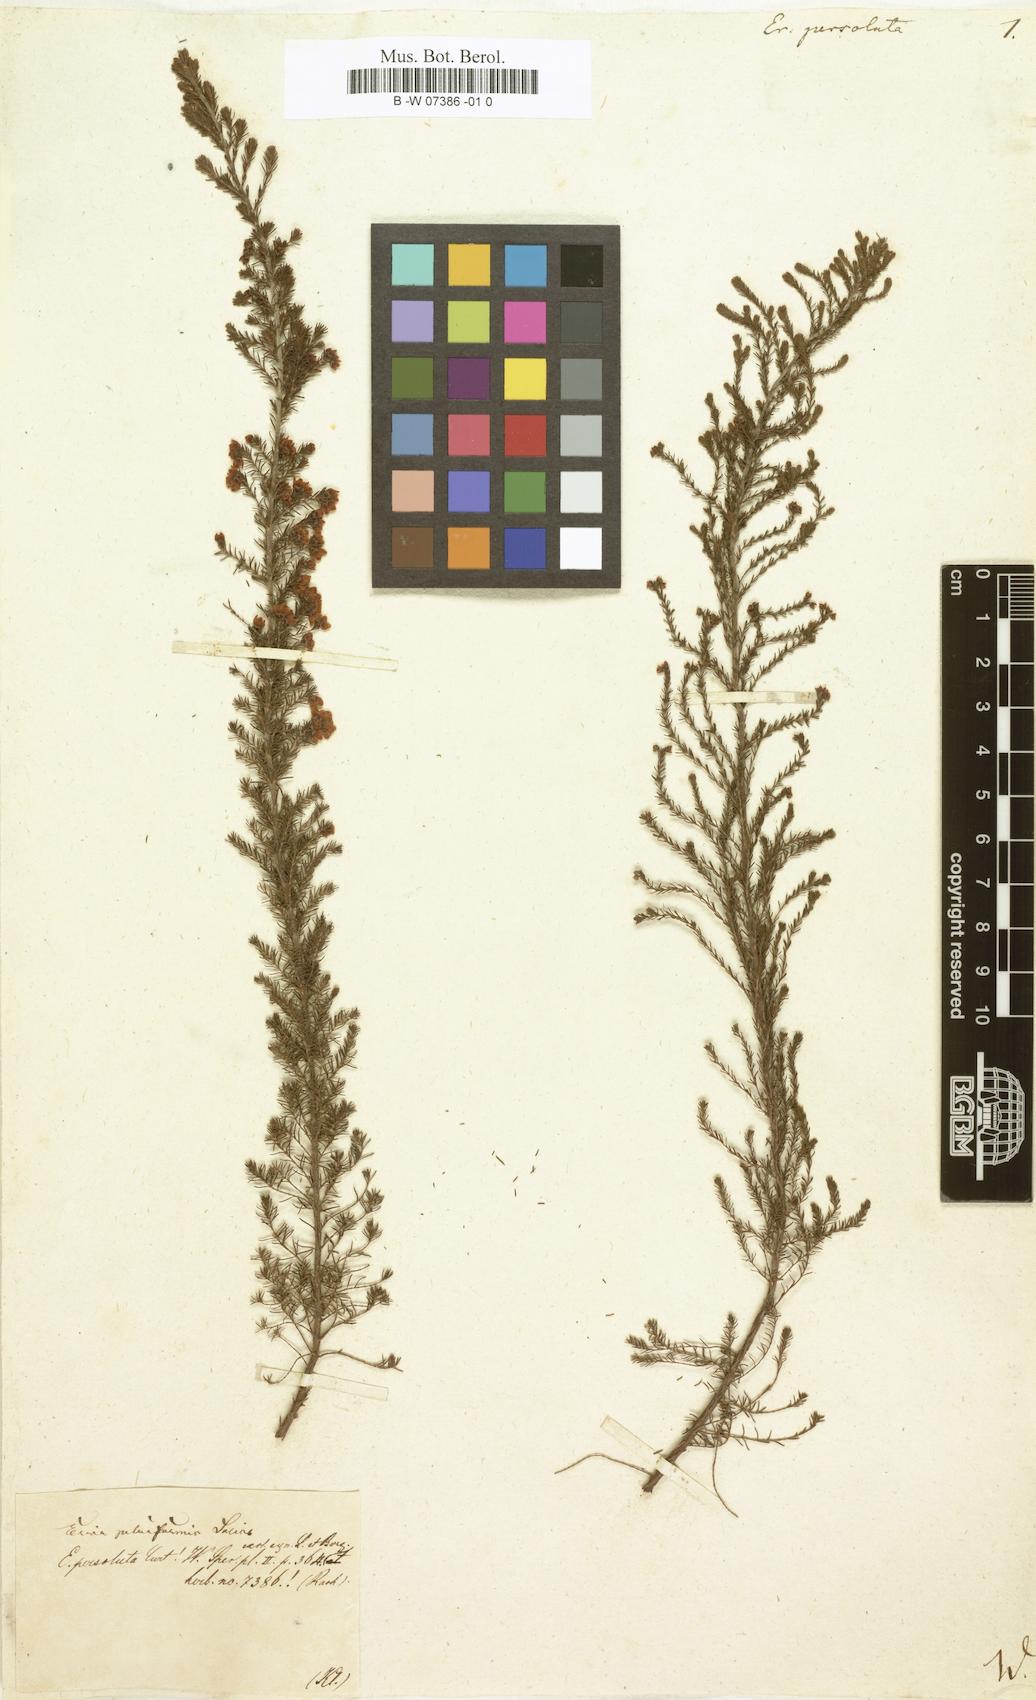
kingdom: Plantae
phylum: Tracheophyta
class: Magnoliopsida
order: Ericales
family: Ericaceae
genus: Erica
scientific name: Erica
